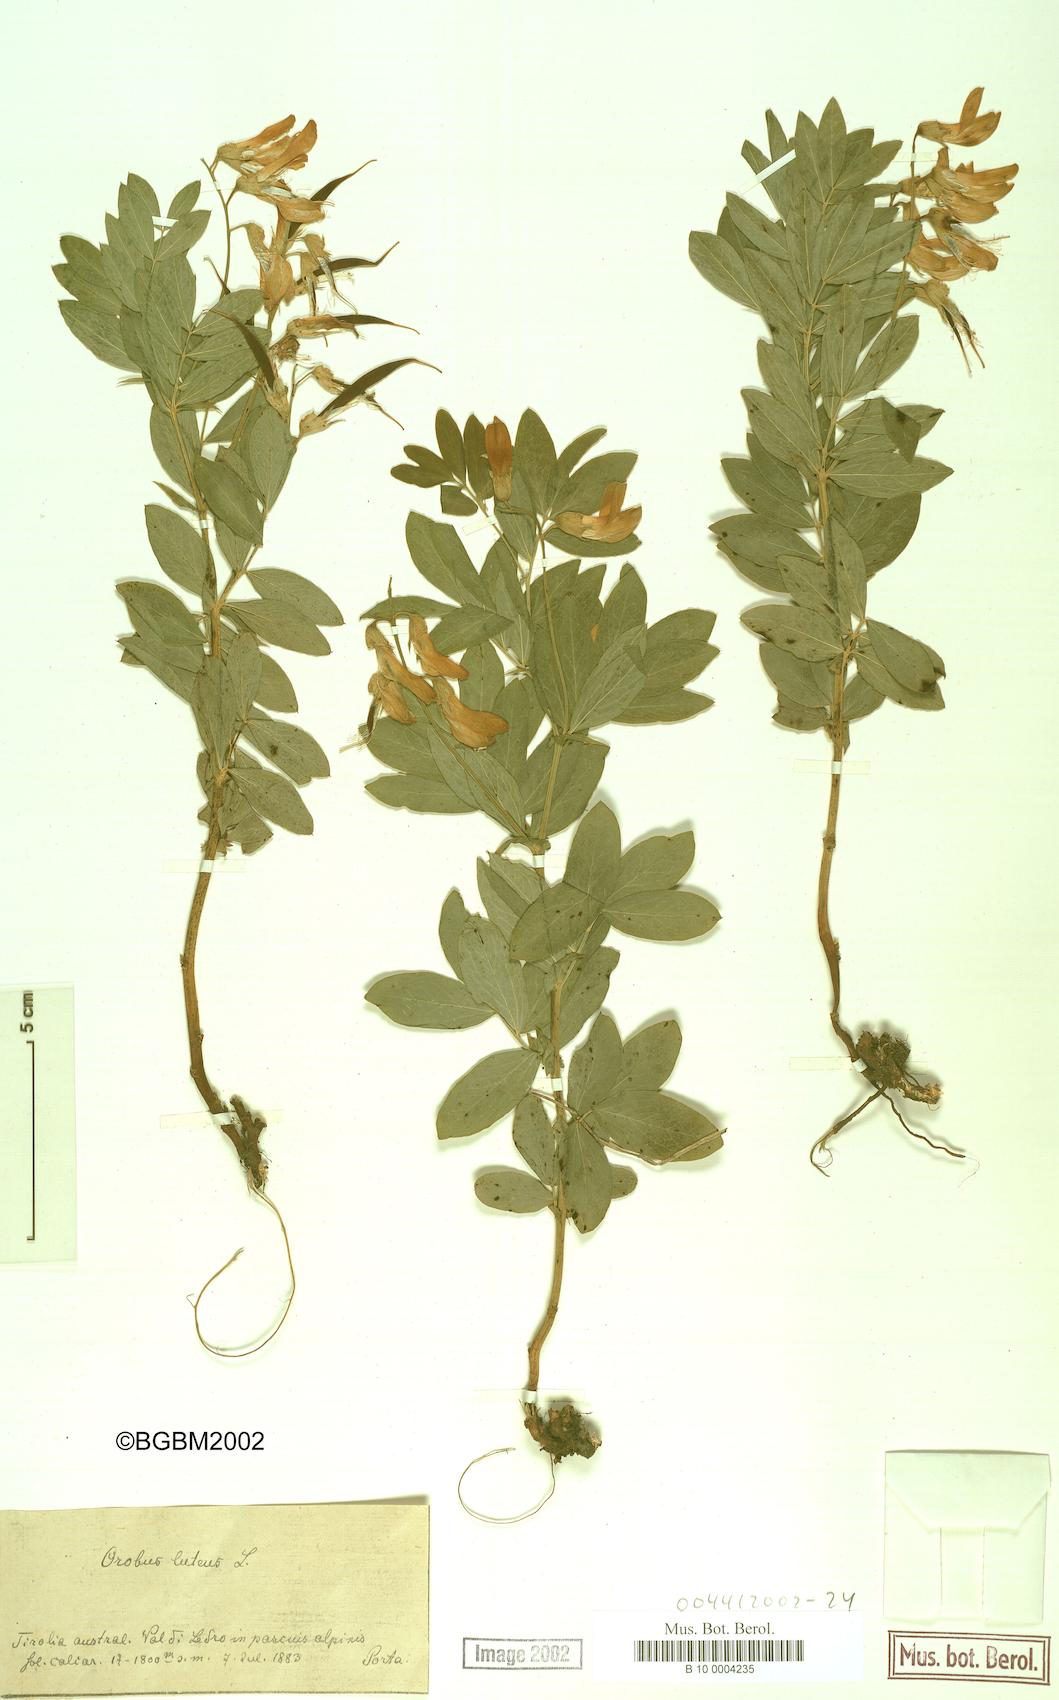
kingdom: Plantae
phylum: Tracheophyta
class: Magnoliopsida
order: Fabales
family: Fabaceae
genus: Lathyrus
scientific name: Lathyrus gmelinii
